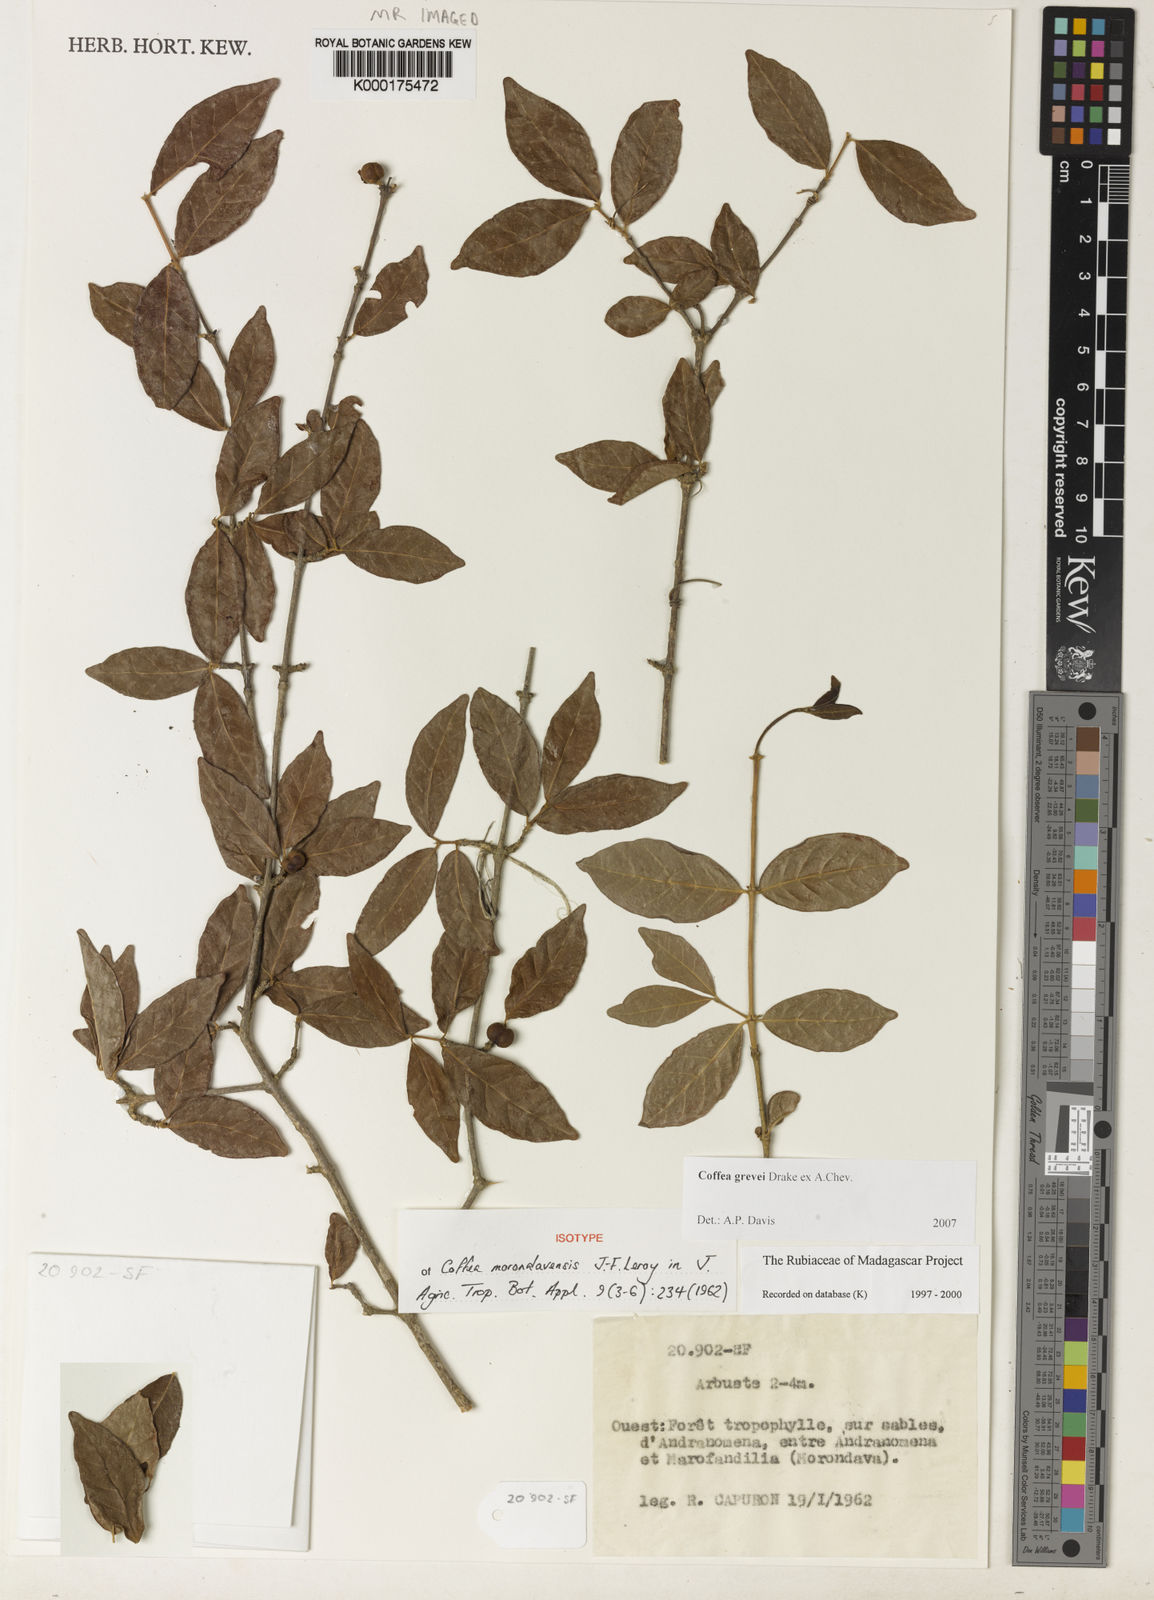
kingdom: Plantae
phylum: Tracheophyta
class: Magnoliopsida
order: Gentianales
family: Rubiaceae
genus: Coffea
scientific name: Coffea grevei
